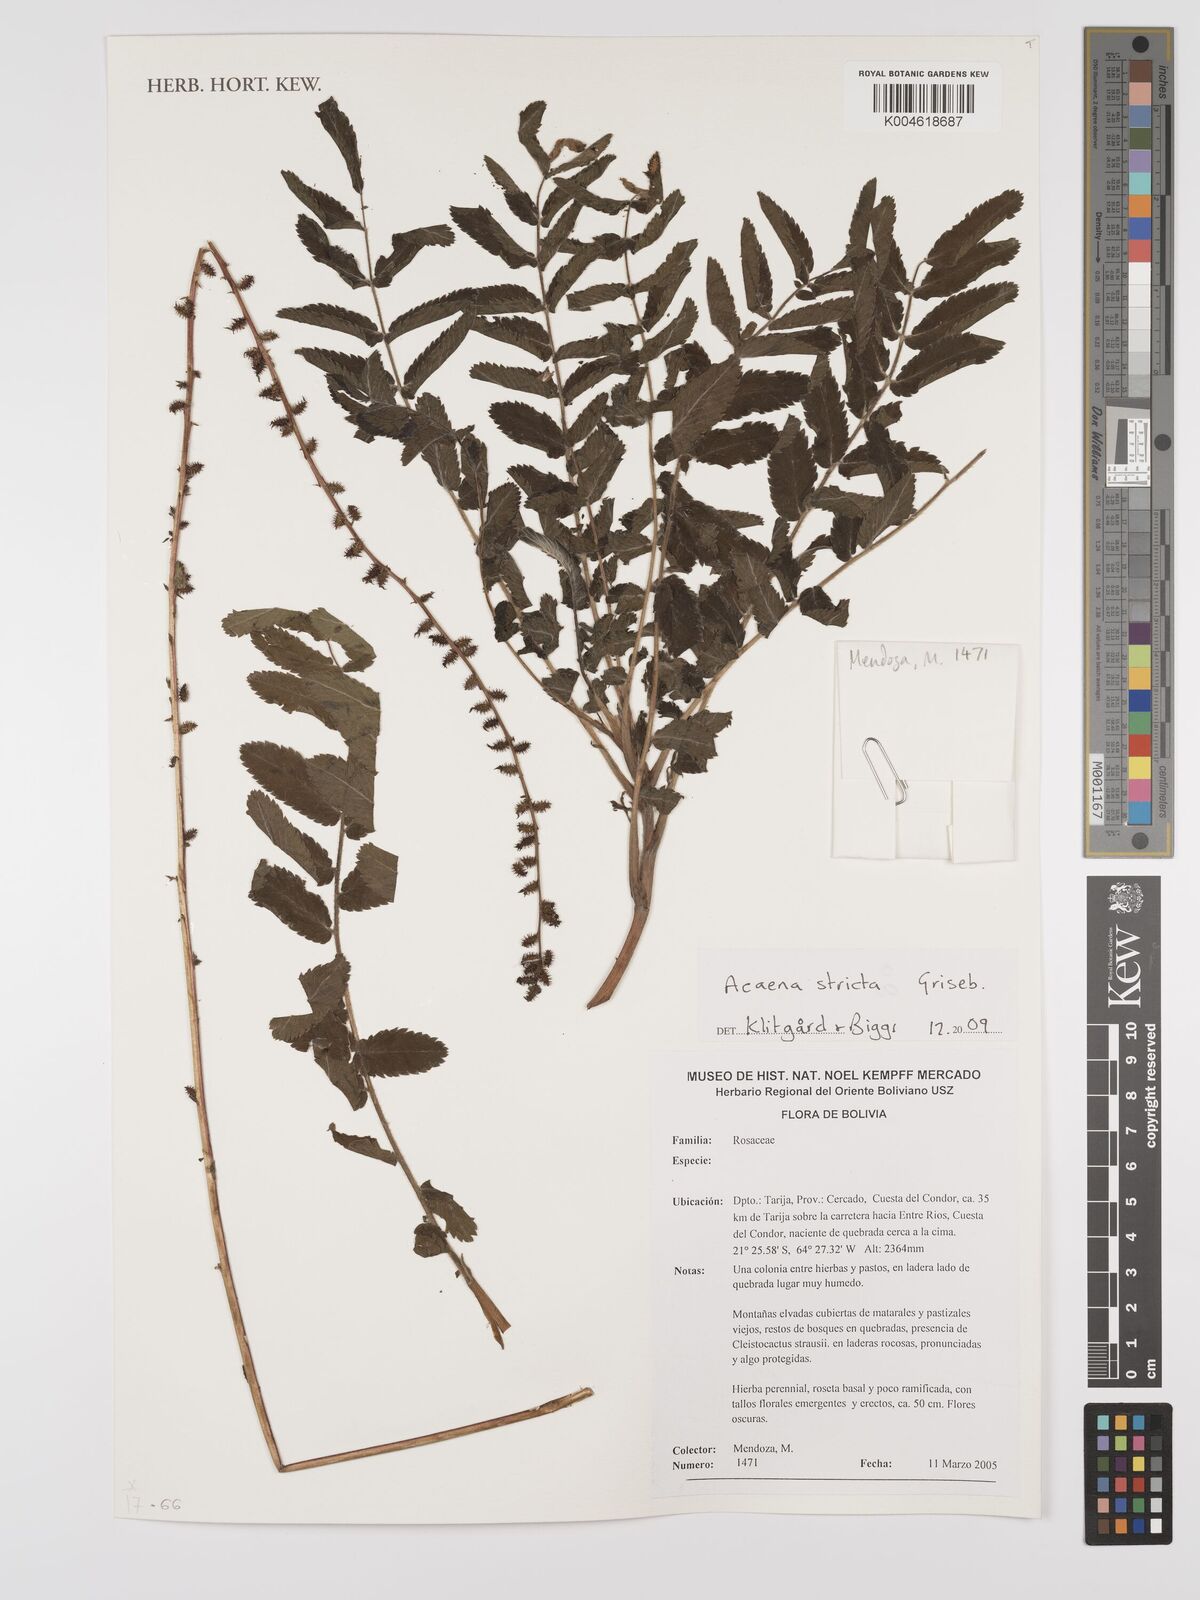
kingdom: Plantae
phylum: Tracheophyta
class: Magnoliopsida
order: Rosales
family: Rosaceae
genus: Acaena
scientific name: Acaena stricta
